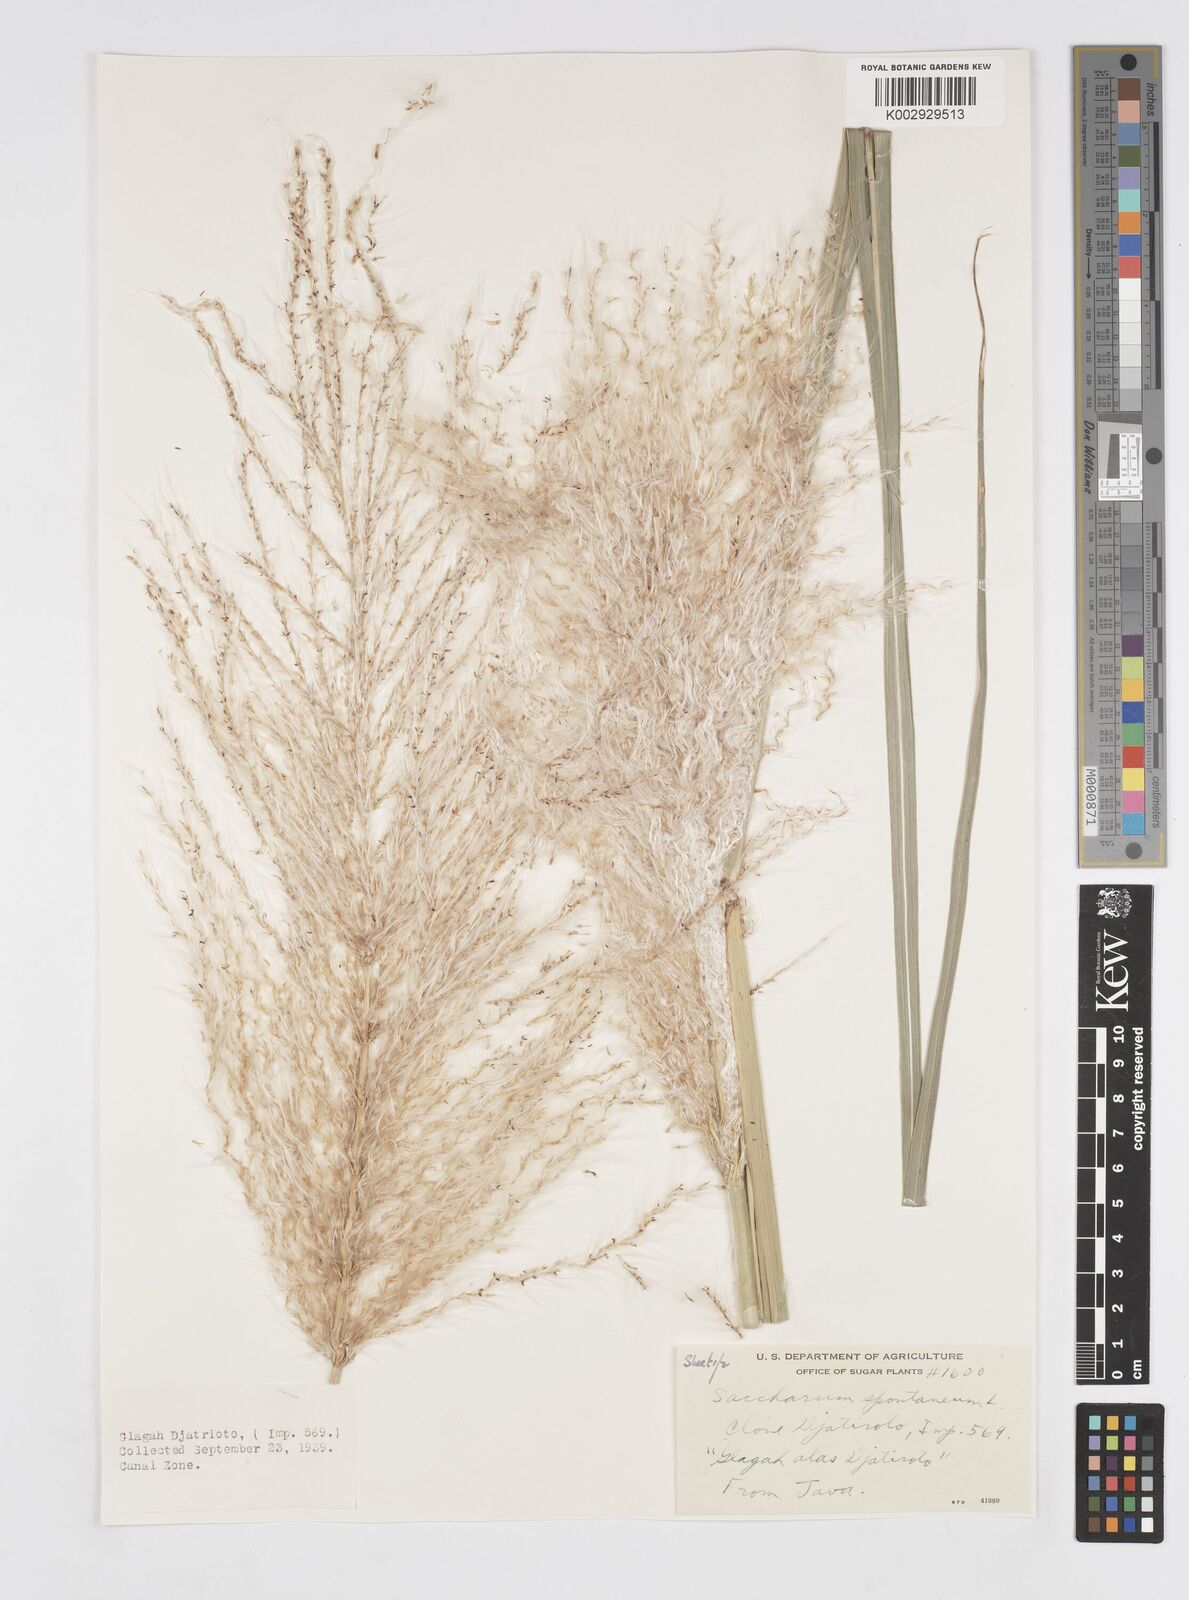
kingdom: Plantae
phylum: Tracheophyta
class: Liliopsida
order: Poales
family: Poaceae
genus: Saccharum
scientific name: Saccharum spontaneum
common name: Wild sugarcane
